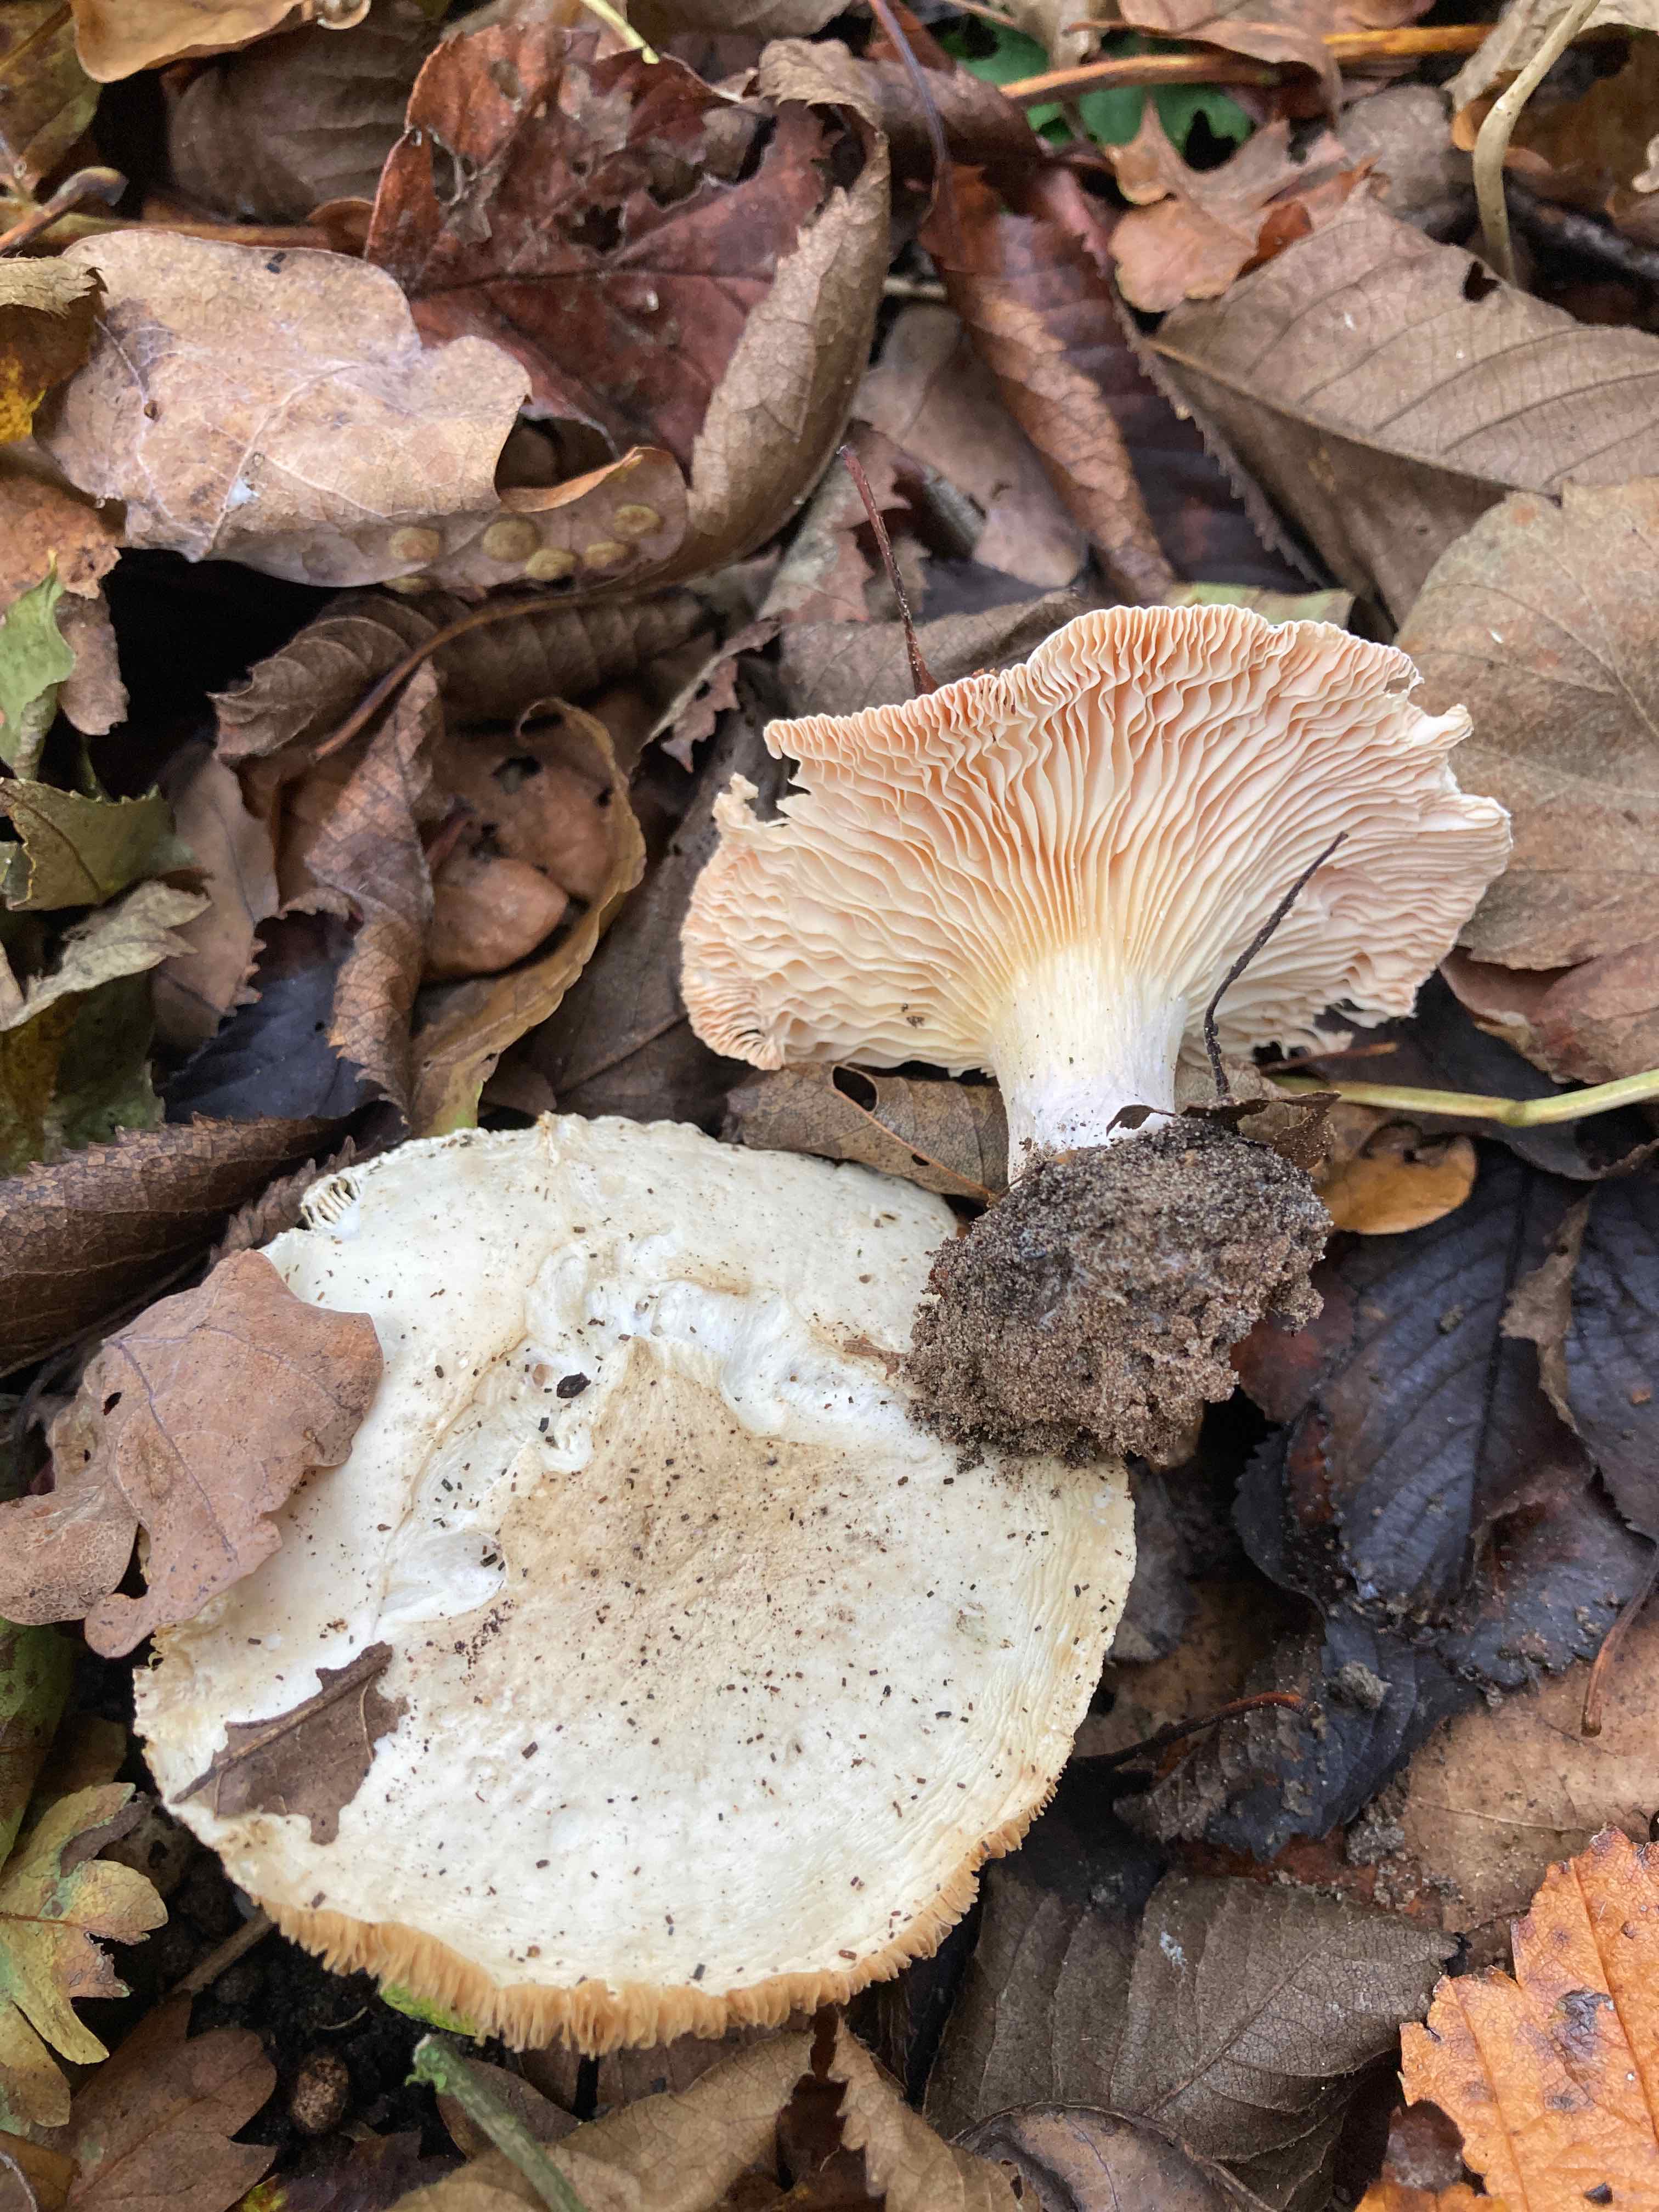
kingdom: Fungi
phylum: Basidiomycota
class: Agaricomycetes
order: Agaricales
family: Tricholomataceae
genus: Pseudoclitopilus
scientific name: Pseudoclitopilus rhodoleucus
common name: rosabladet tragtridderhat
